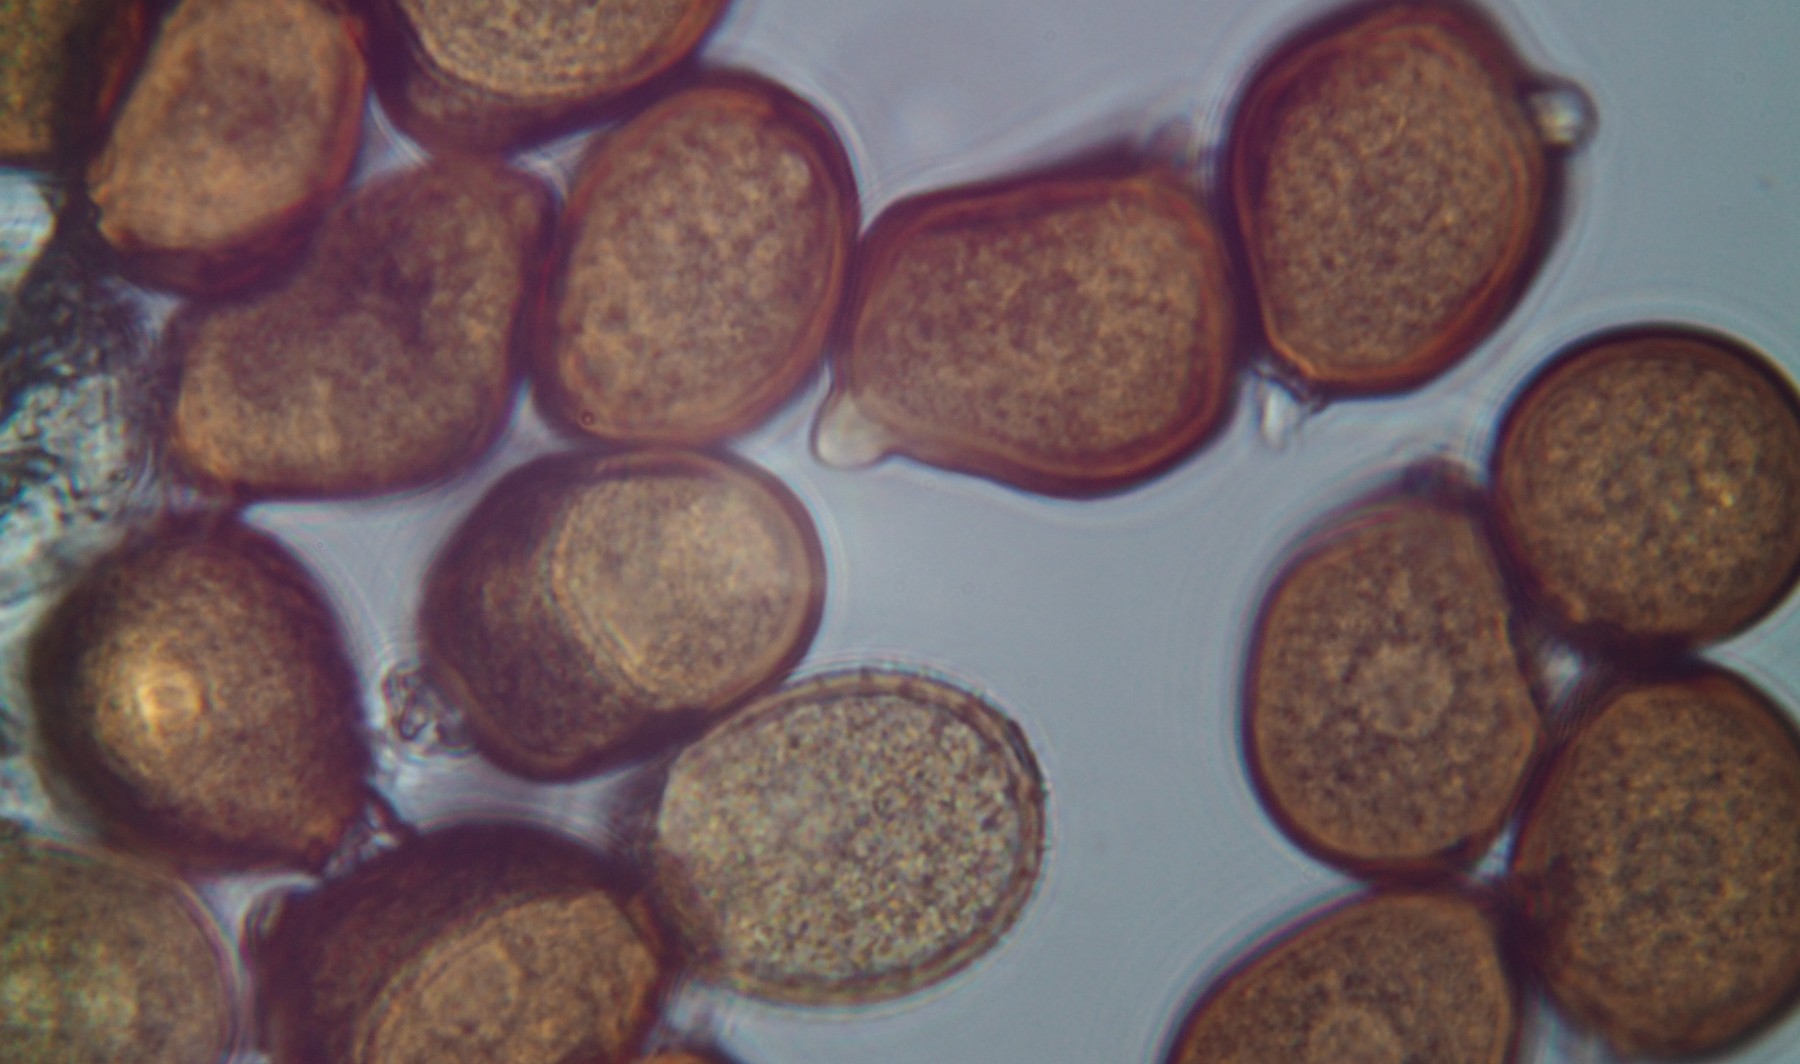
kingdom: Fungi
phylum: Basidiomycota
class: Pucciniomycetes
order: Pucciniales
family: Pucciniaceae
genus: Uromyces
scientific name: Uromyces rumicis
